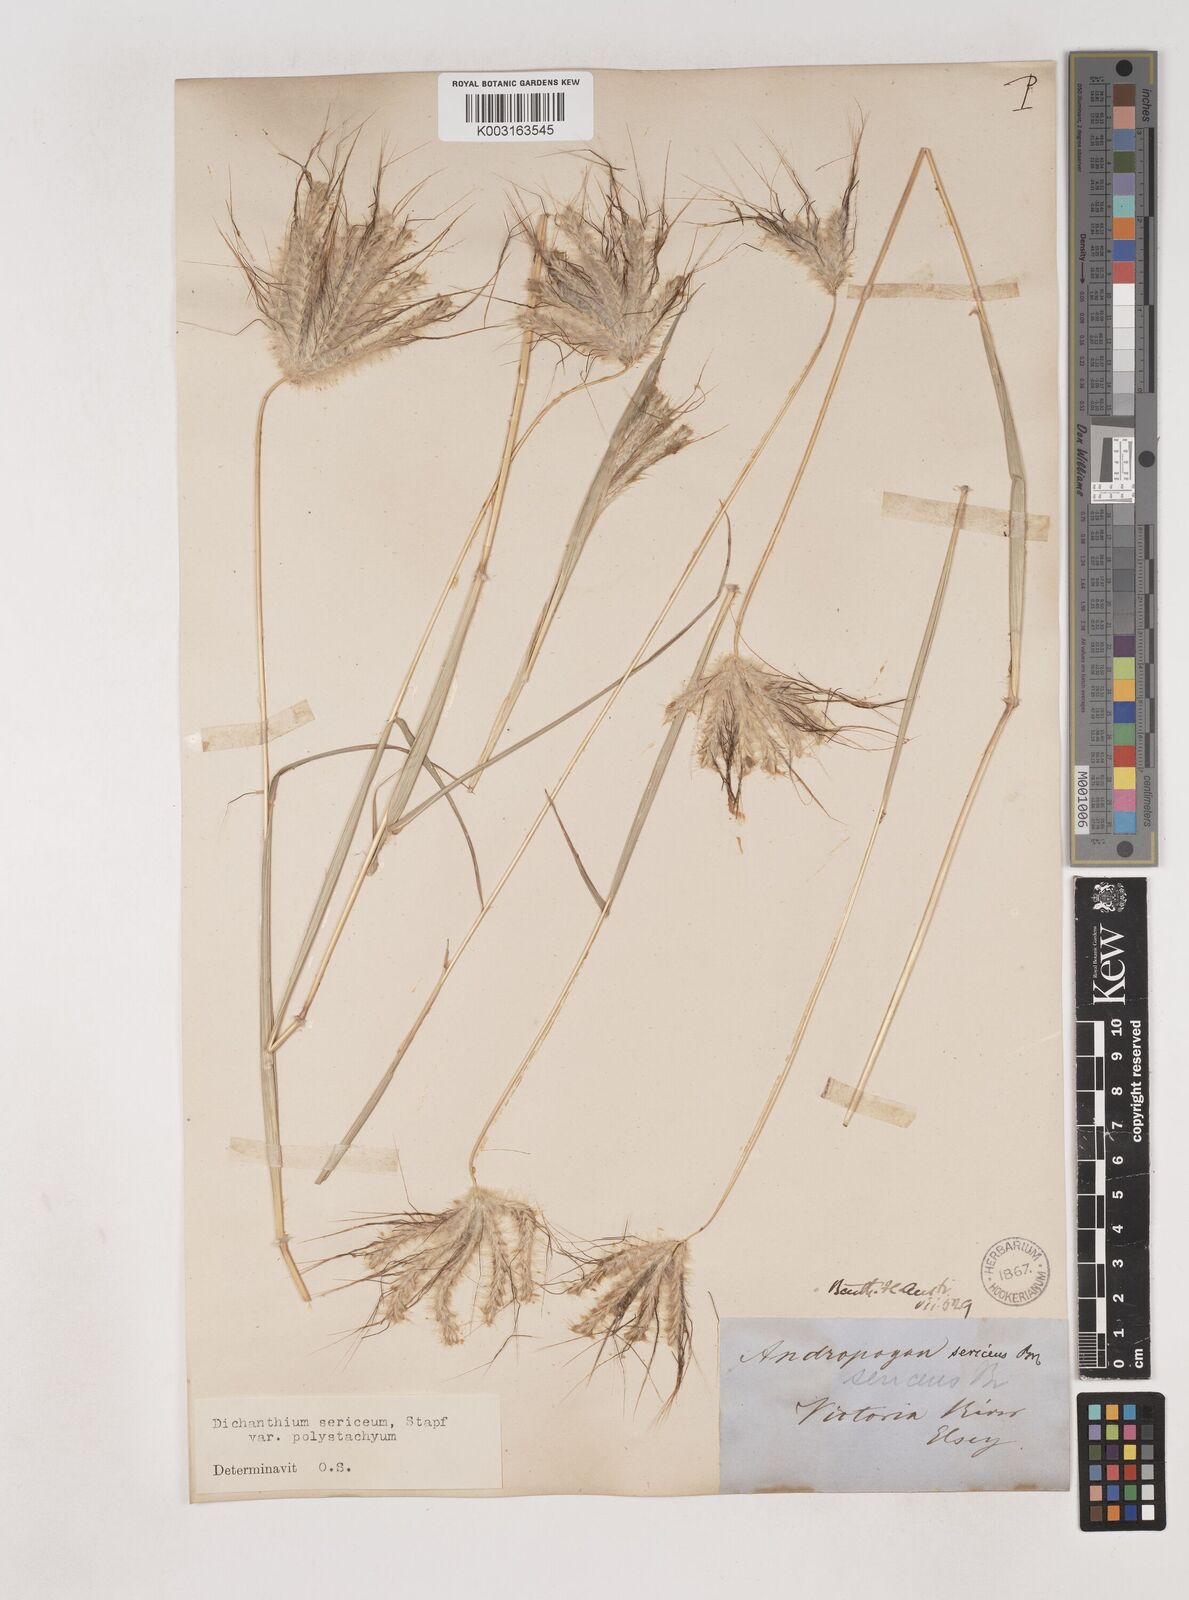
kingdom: Plantae
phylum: Tracheophyta
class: Liliopsida
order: Poales
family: Poaceae
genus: Dichanthium
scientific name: Dichanthium sericeum
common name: Silky bluestem
